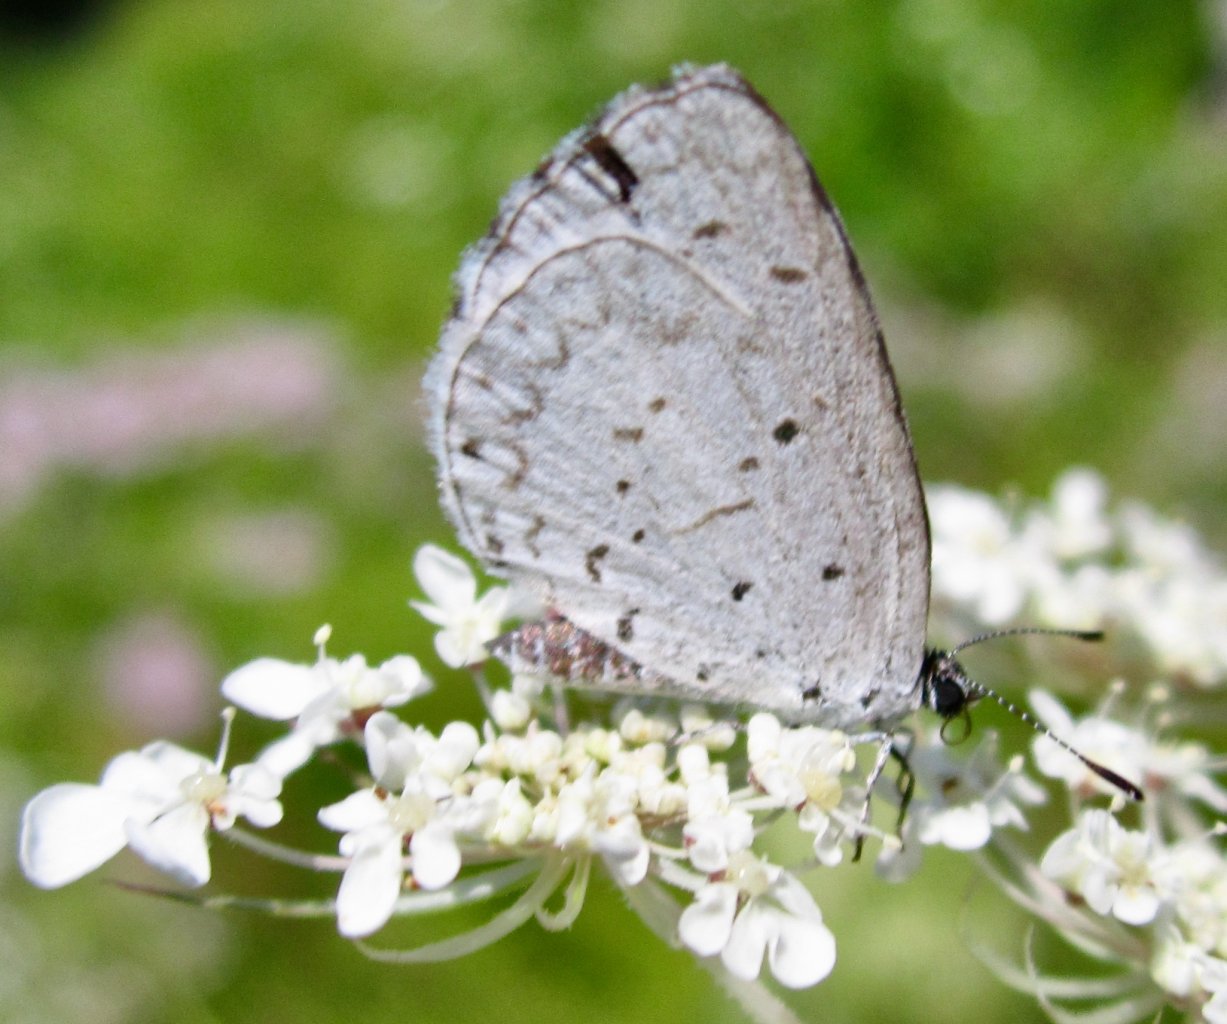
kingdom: Animalia
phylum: Arthropoda
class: Insecta
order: Lepidoptera
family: Lycaenidae
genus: Cyaniris
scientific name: Cyaniris neglecta
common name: Summer Azure
